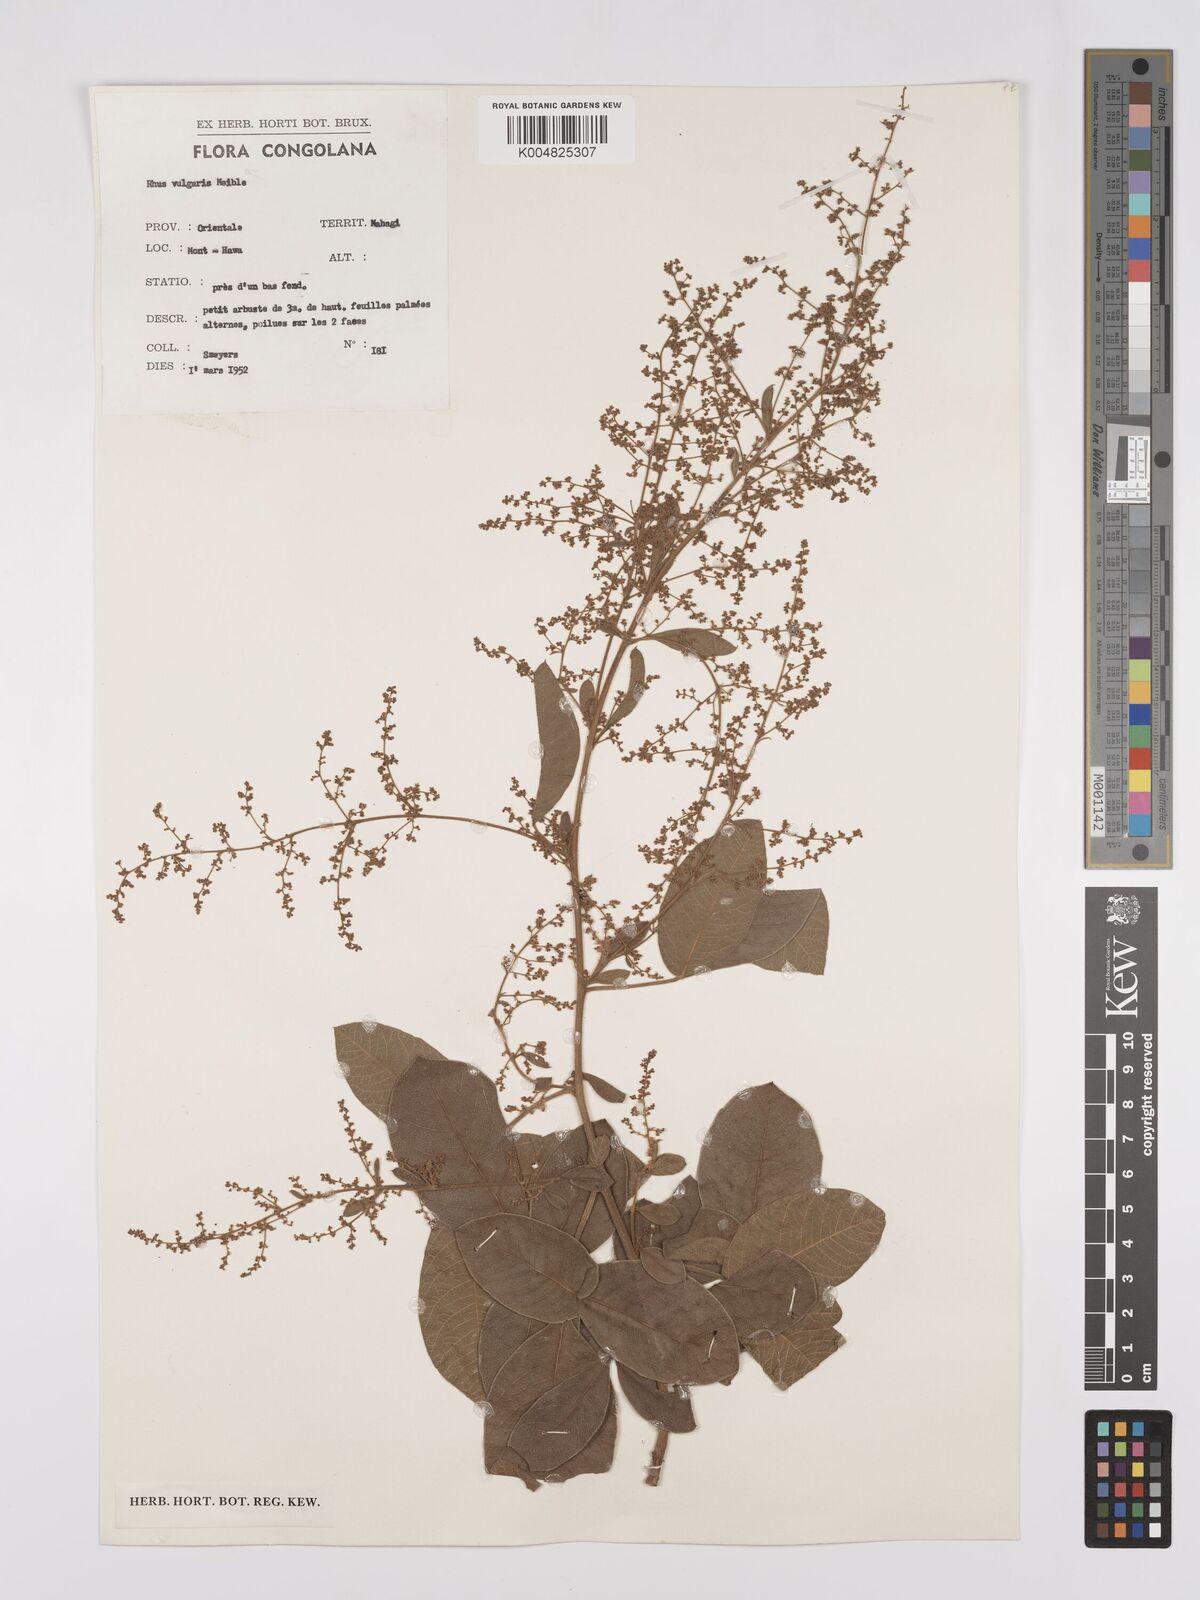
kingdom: Plantae
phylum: Tracheophyta
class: Magnoliopsida
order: Sapindales
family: Anacardiaceae
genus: Searsia
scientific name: Searsia pyroides
